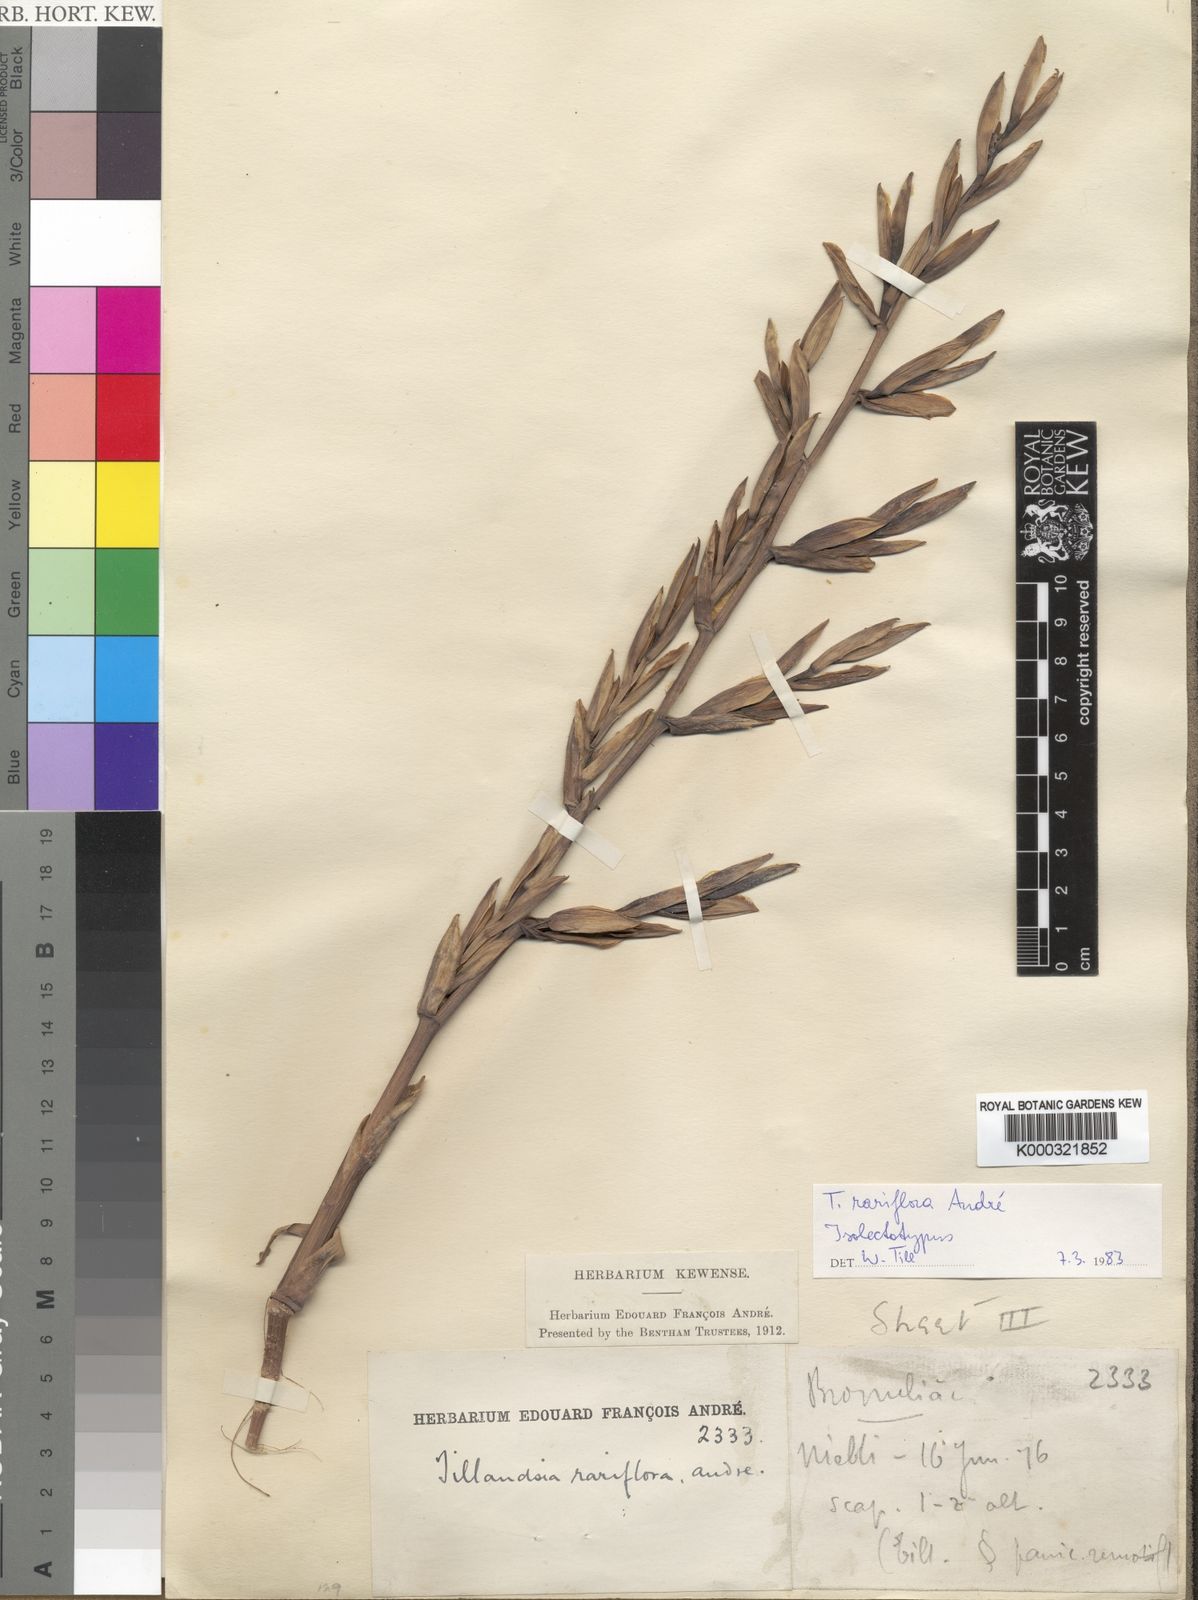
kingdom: Plantae
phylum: Tracheophyta
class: Liliopsida
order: Poales
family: Bromeliaceae
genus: Tillandsia
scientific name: Tillandsia
